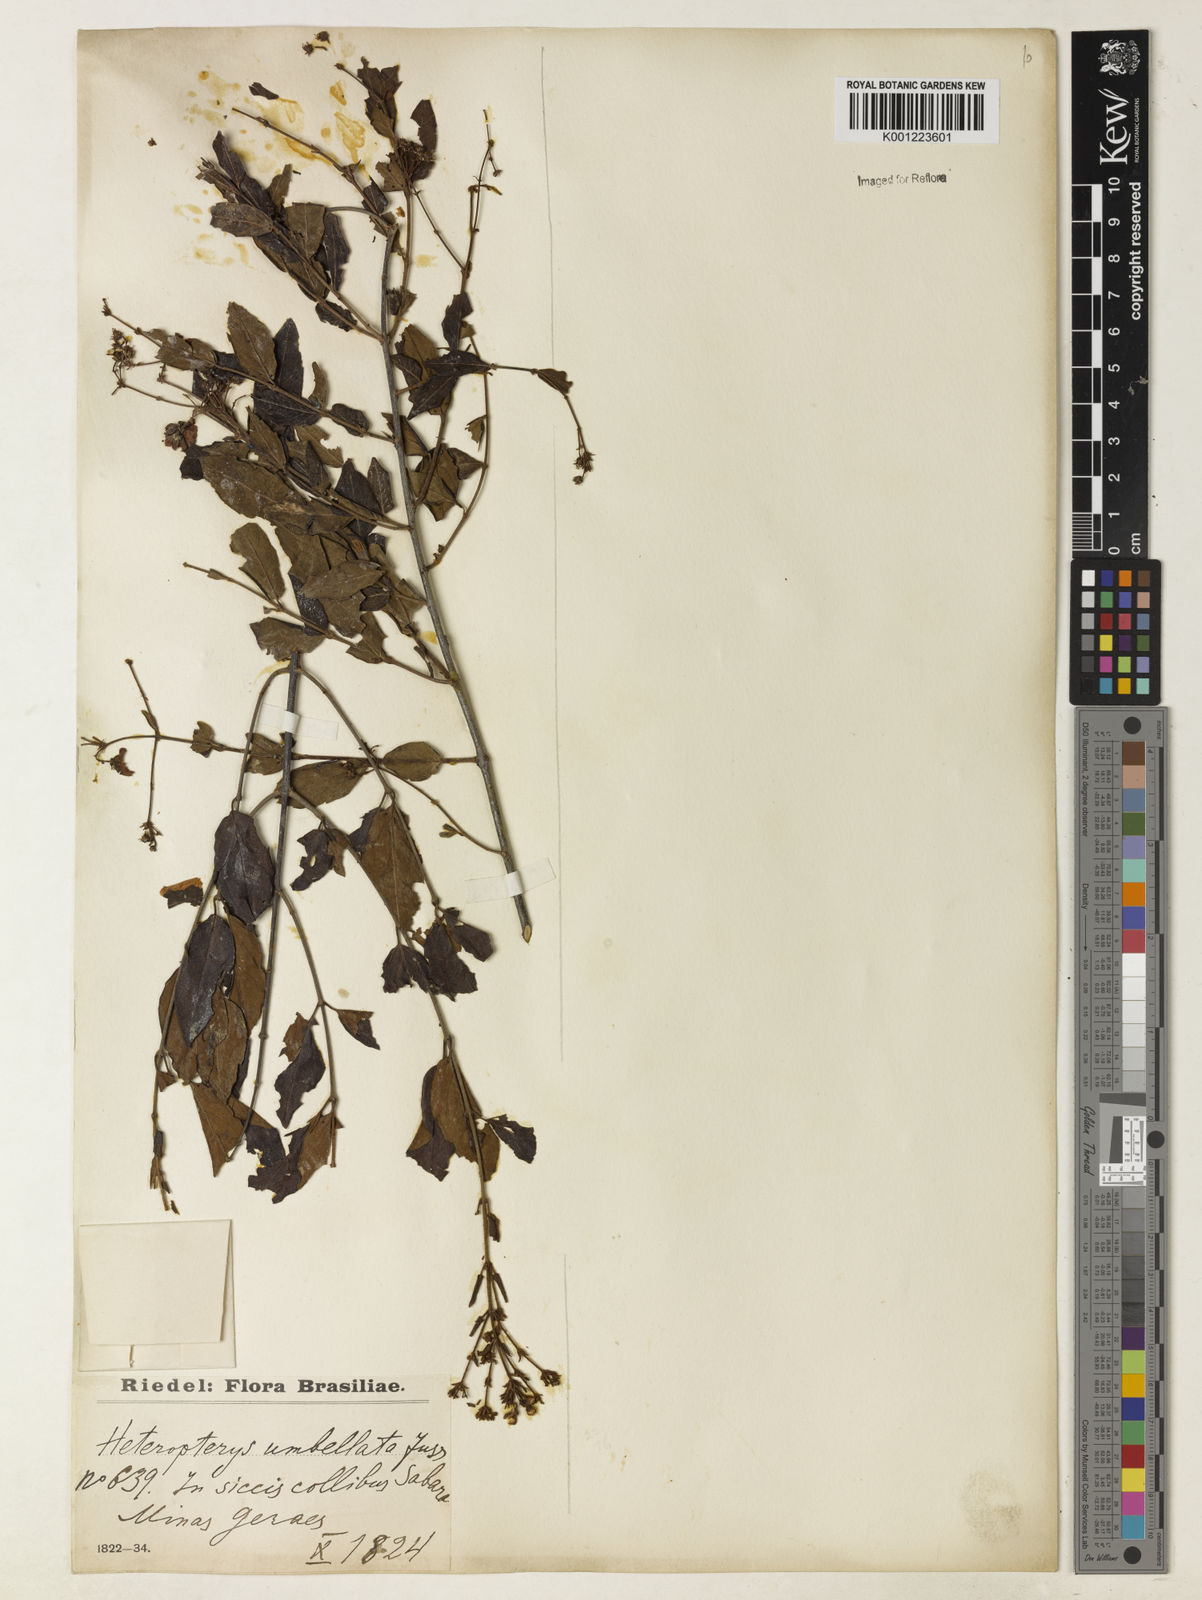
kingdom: Plantae
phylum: Tracheophyta
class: Magnoliopsida
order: Malpighiales
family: Malpighiaceae
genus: Heteropterys
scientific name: Heteropterys umbellata
